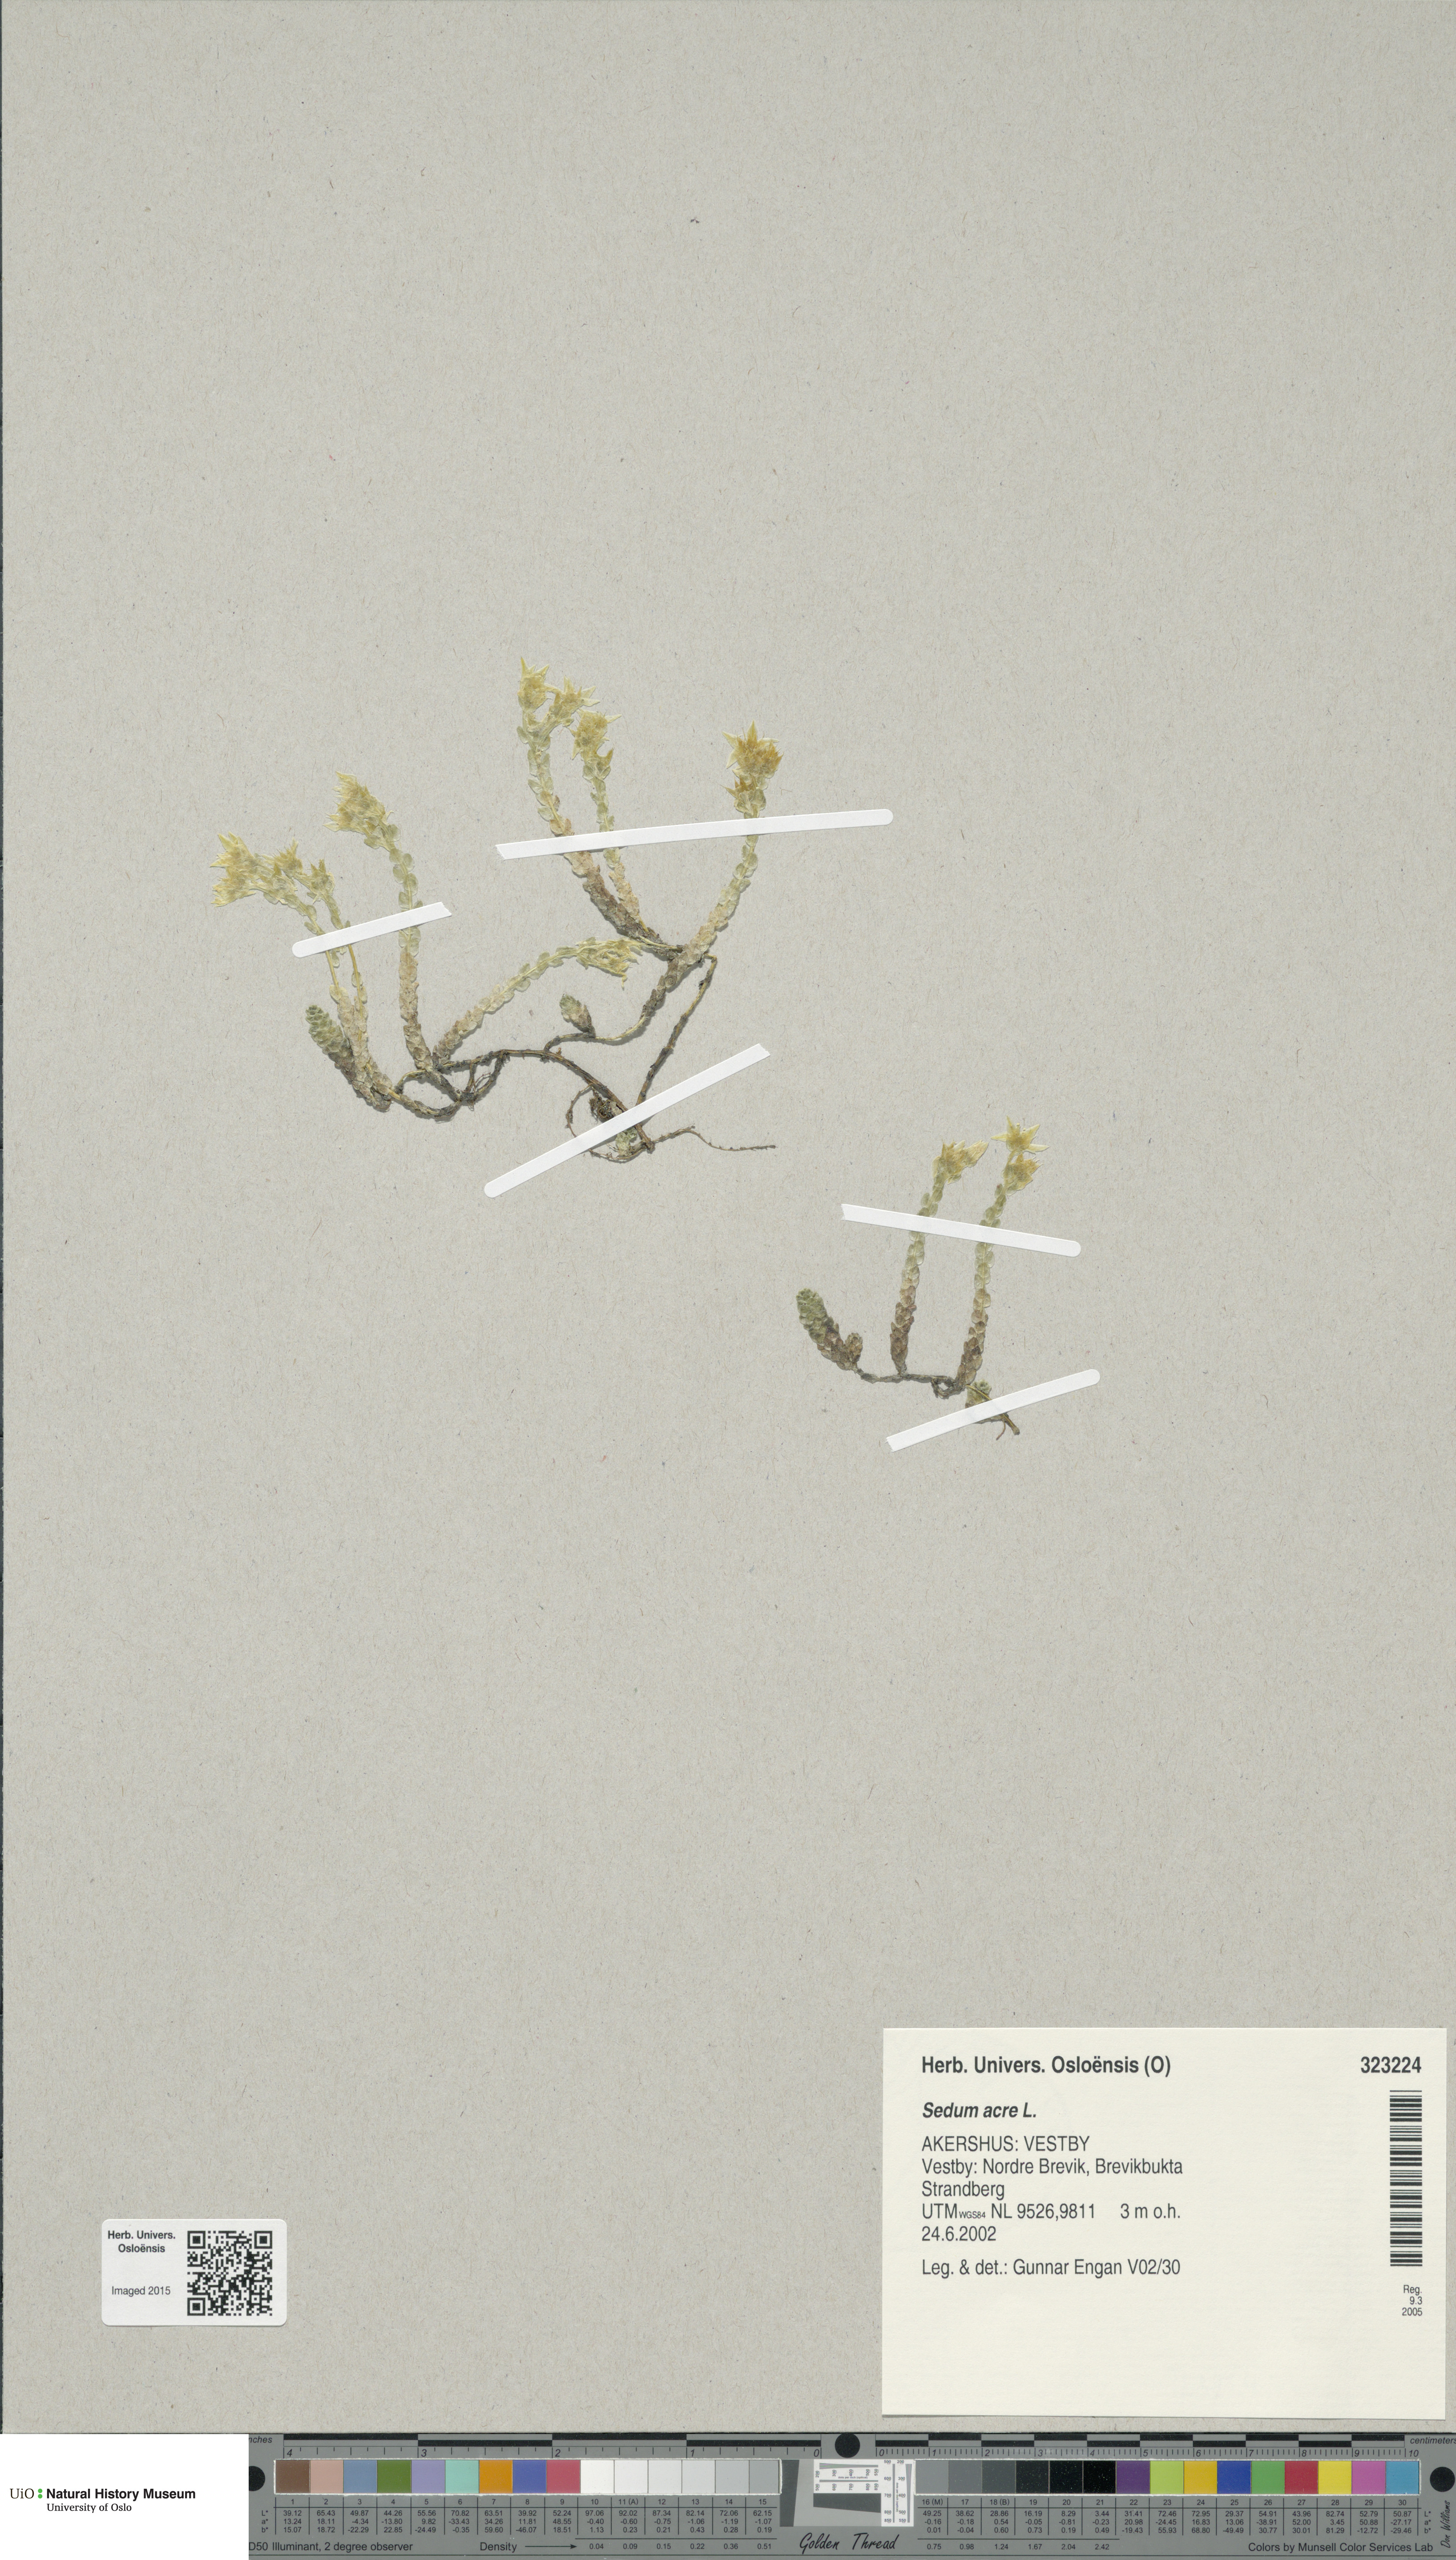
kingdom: Plantae
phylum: Tracheophyta
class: Magnoliopsida
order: Saxifragales
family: Crassulaceae
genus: Sedum
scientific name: Sedum acre
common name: Biting stonecrop
